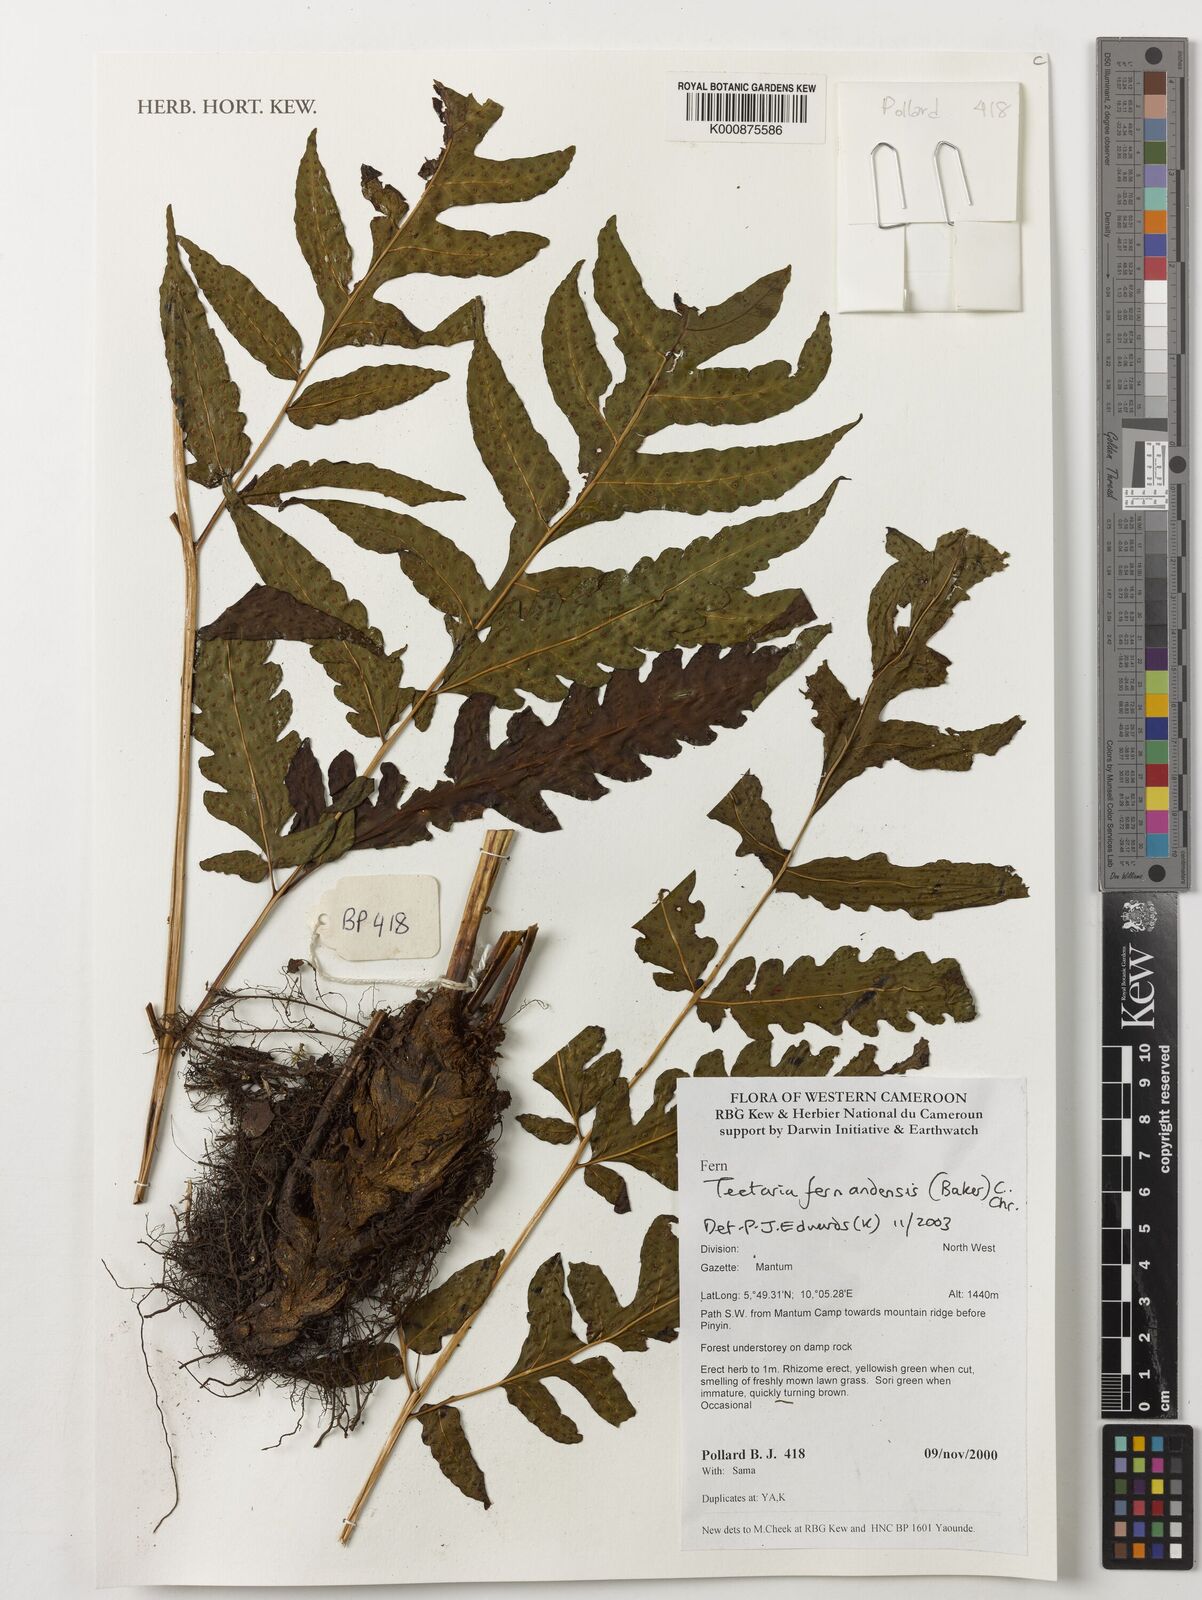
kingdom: Plantae
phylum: Tracheophyta
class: Polypodiopsida
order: Polypodiales
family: Tectariaceae
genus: Tectaria
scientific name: Tectaria fernandensis
